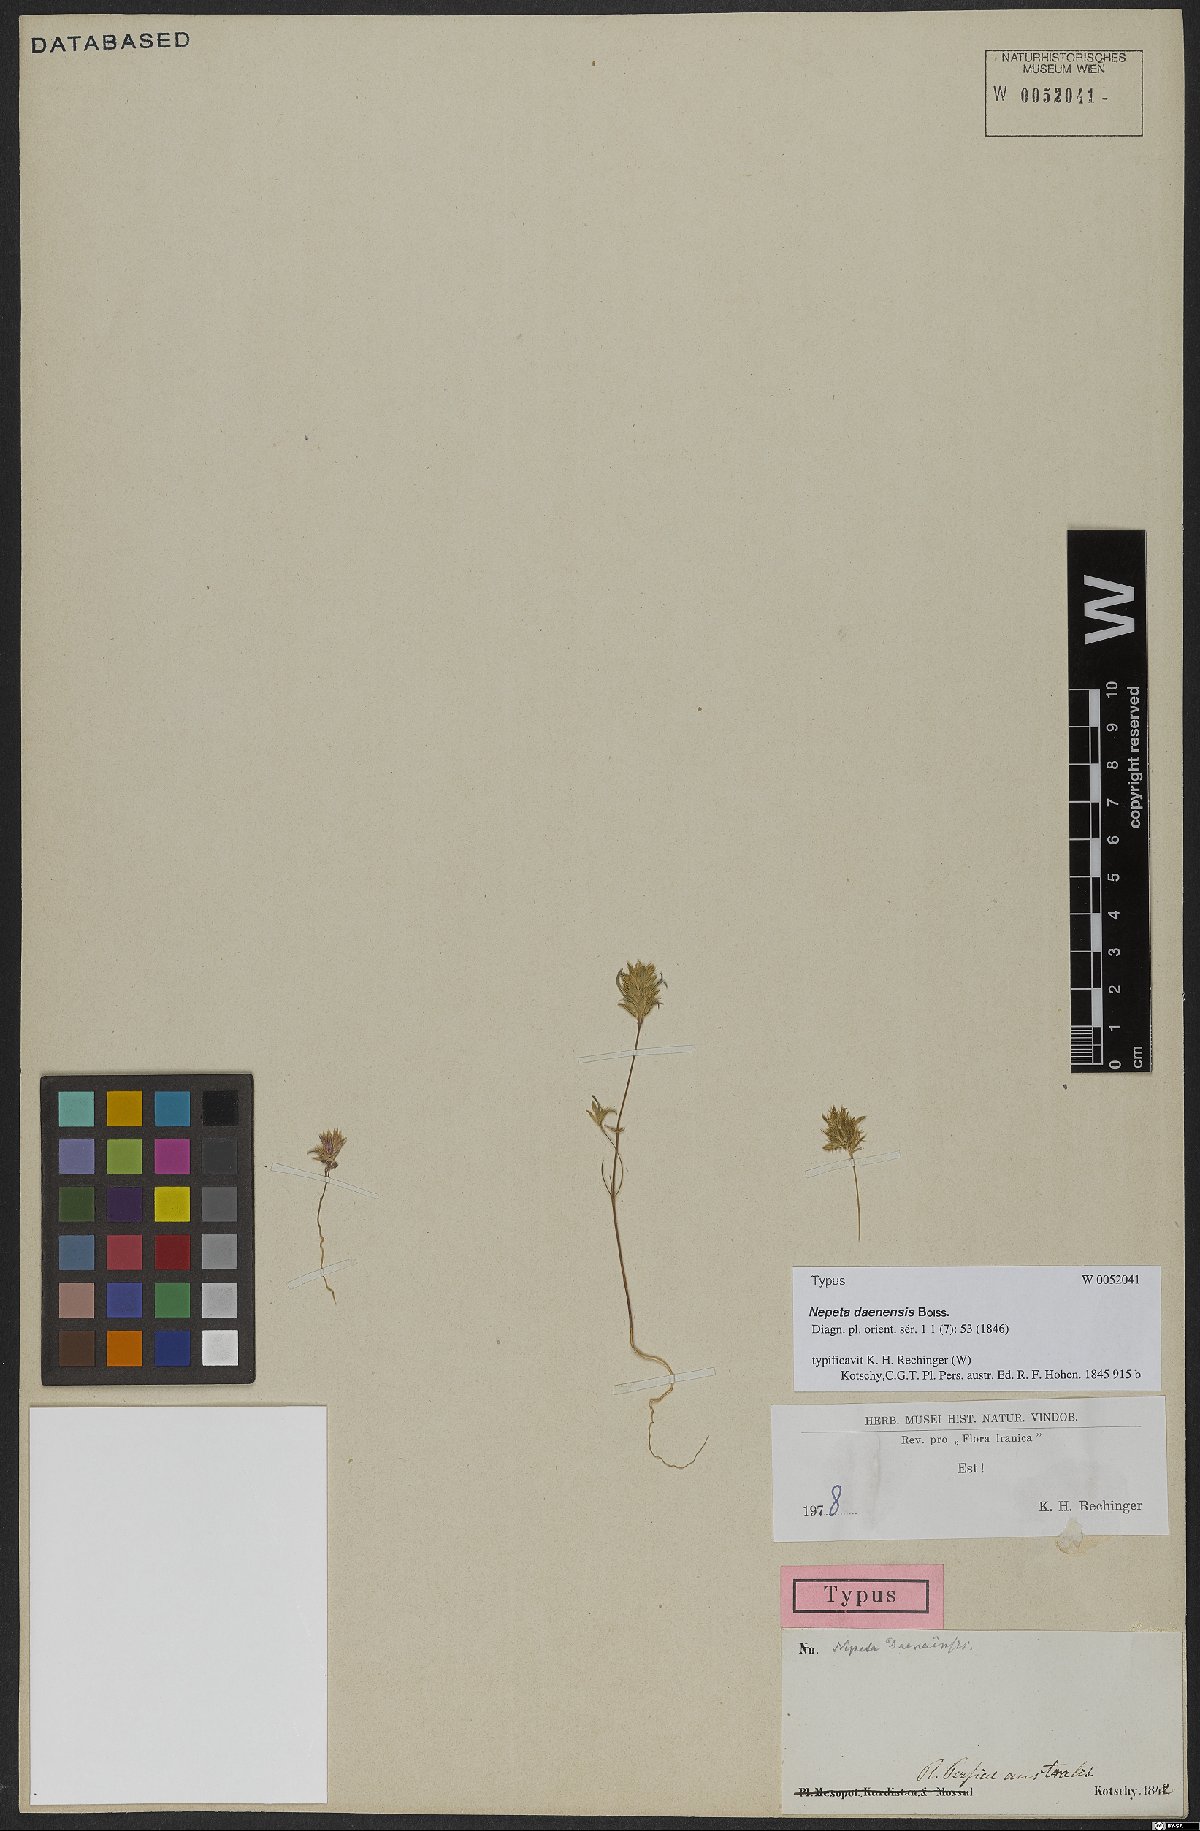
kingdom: Plantae
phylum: Tracheophyta
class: Magnoliopsida
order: Lamiales
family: Lamiaceae
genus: Nepeta
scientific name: Nepeta daenensis
